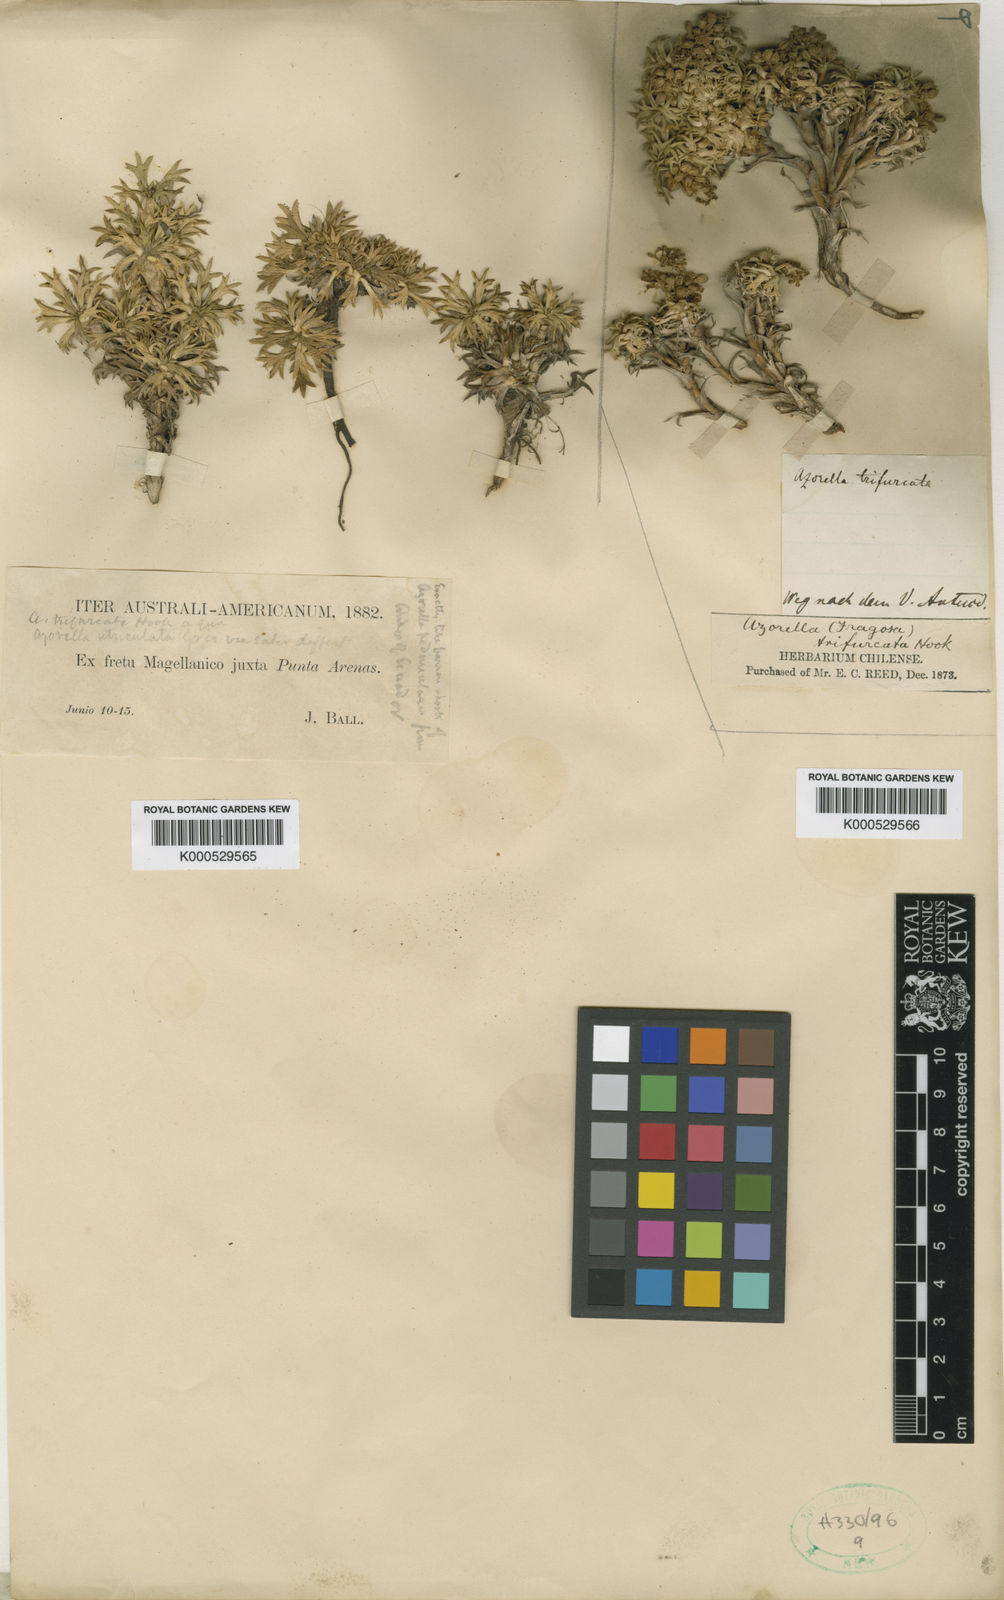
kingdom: Plantae
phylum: Tracheophyta
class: Magnoliopsida
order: Apiales
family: Apiaceae
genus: Azorella
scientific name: Azorella
